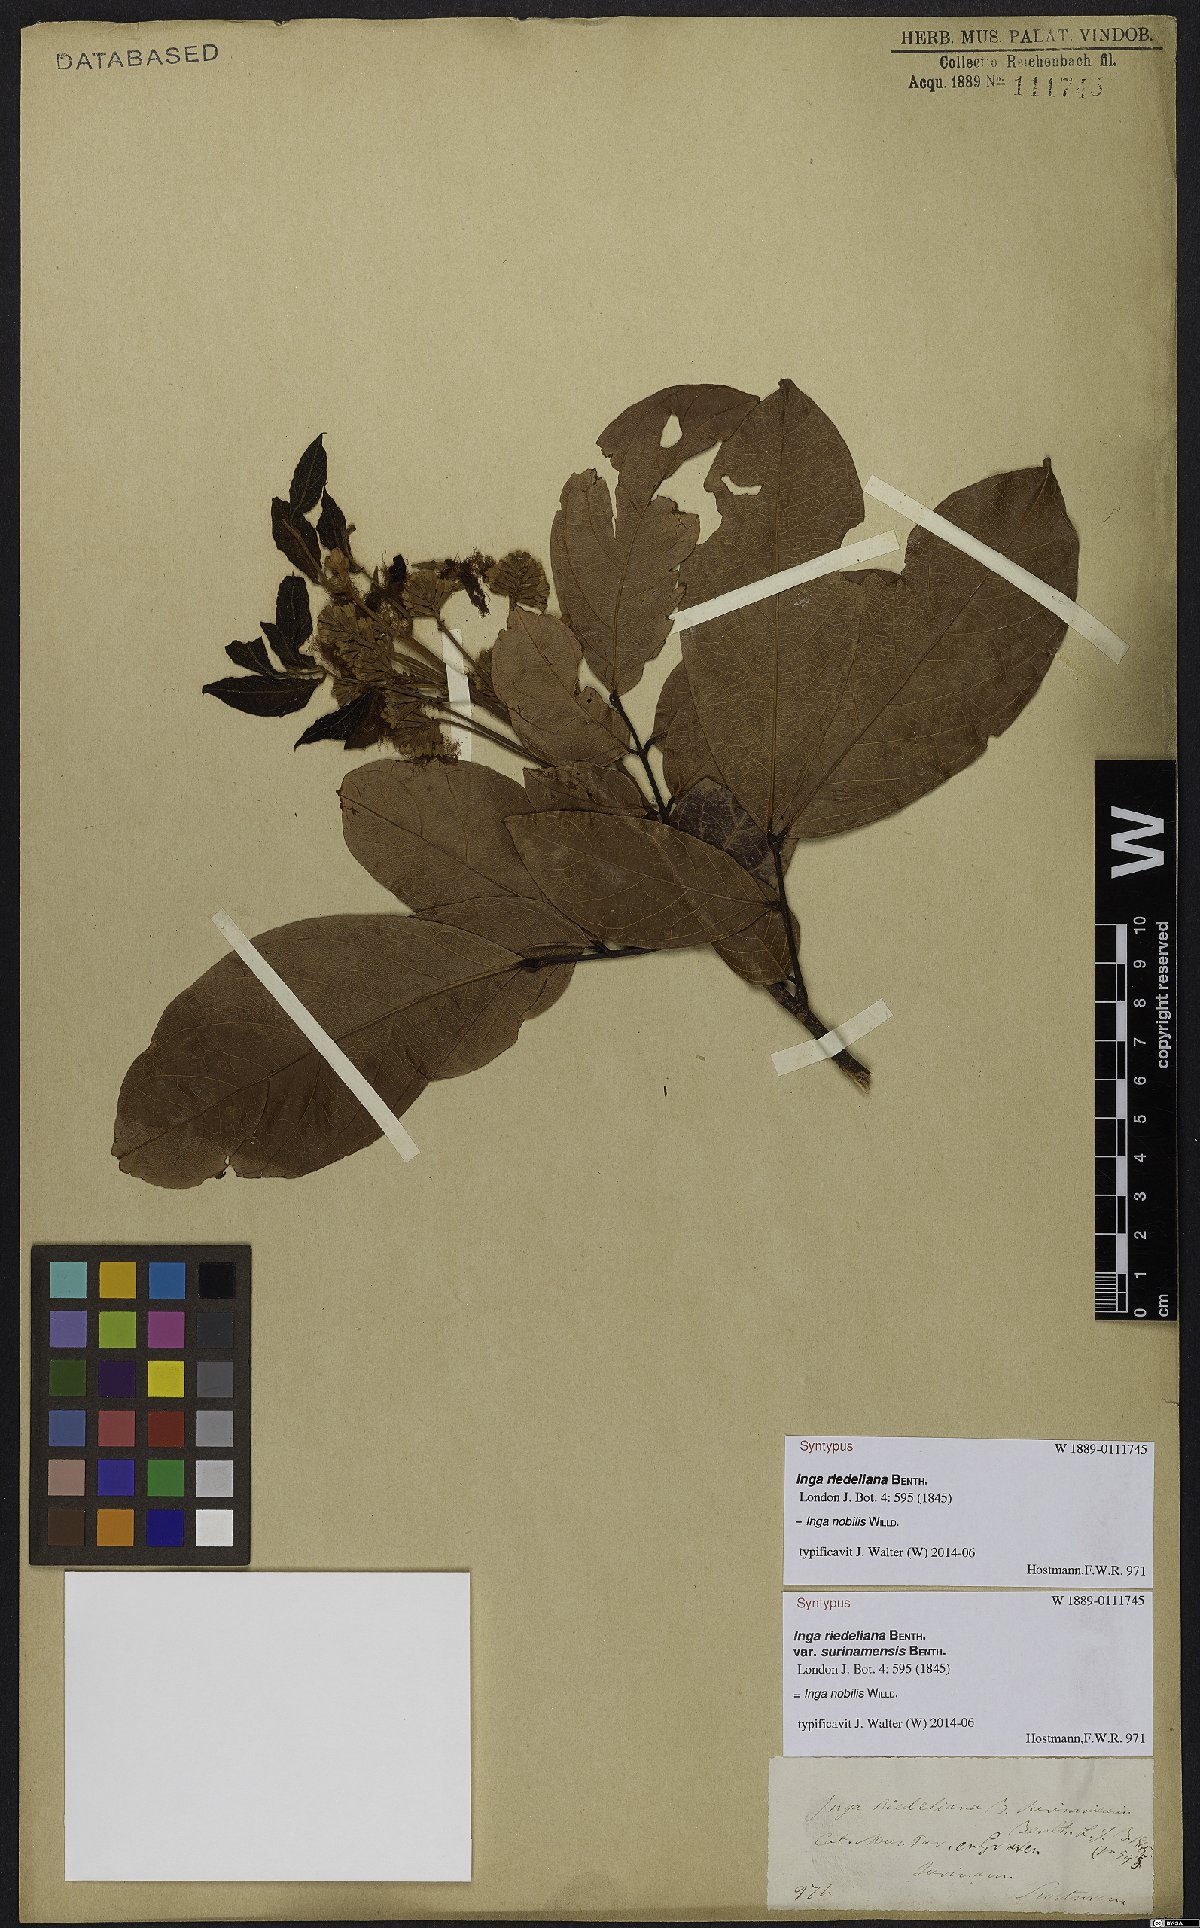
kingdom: Plantae
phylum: Tracheophyta
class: Magnoliopsida
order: Fabales
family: Fabaceae
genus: Inga
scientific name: Inga nobilis
